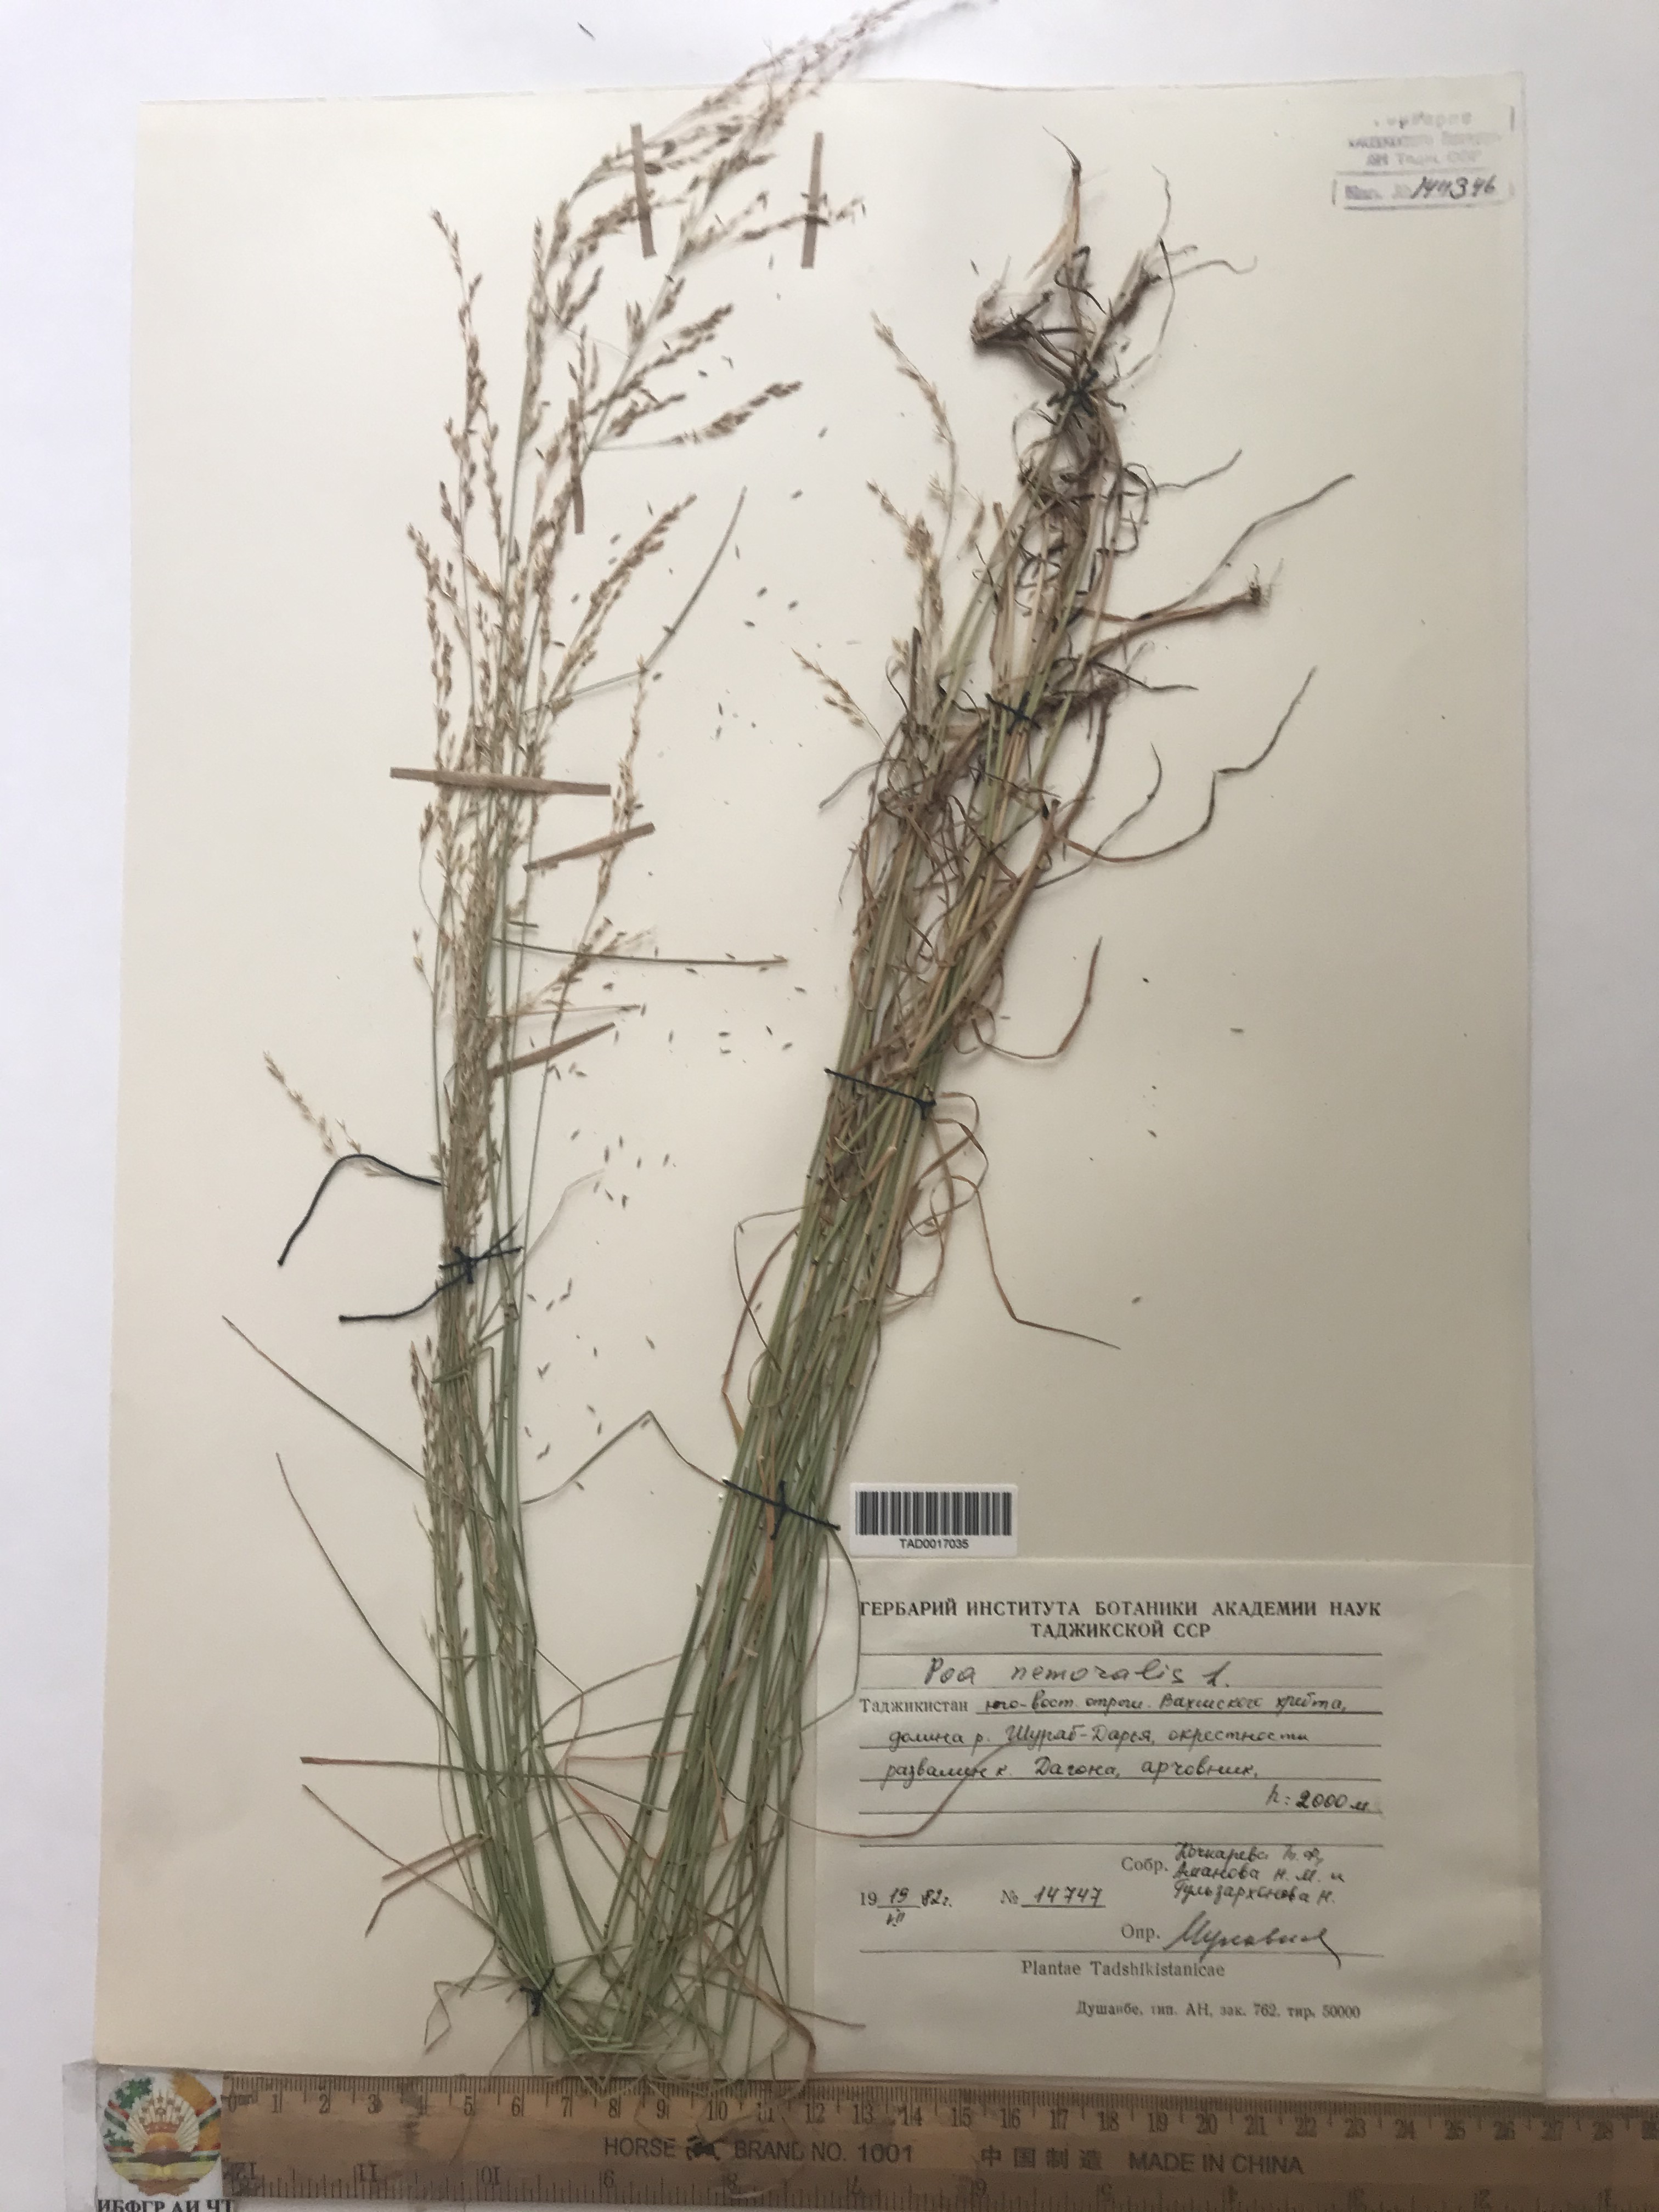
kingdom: Plantae
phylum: Tracheophyta
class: Liliopsida
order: Poales
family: Poaceae
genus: Poa
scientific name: Poa nemoralis
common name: Wood bluegrass
